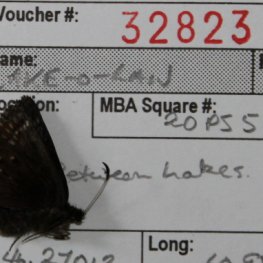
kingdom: Animalia
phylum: Arthropoda
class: Insecta
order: Lepidoptera
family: Hesperiidae
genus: Erynnis
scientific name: Erynnis icelus
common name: Dreamy Duskywing
